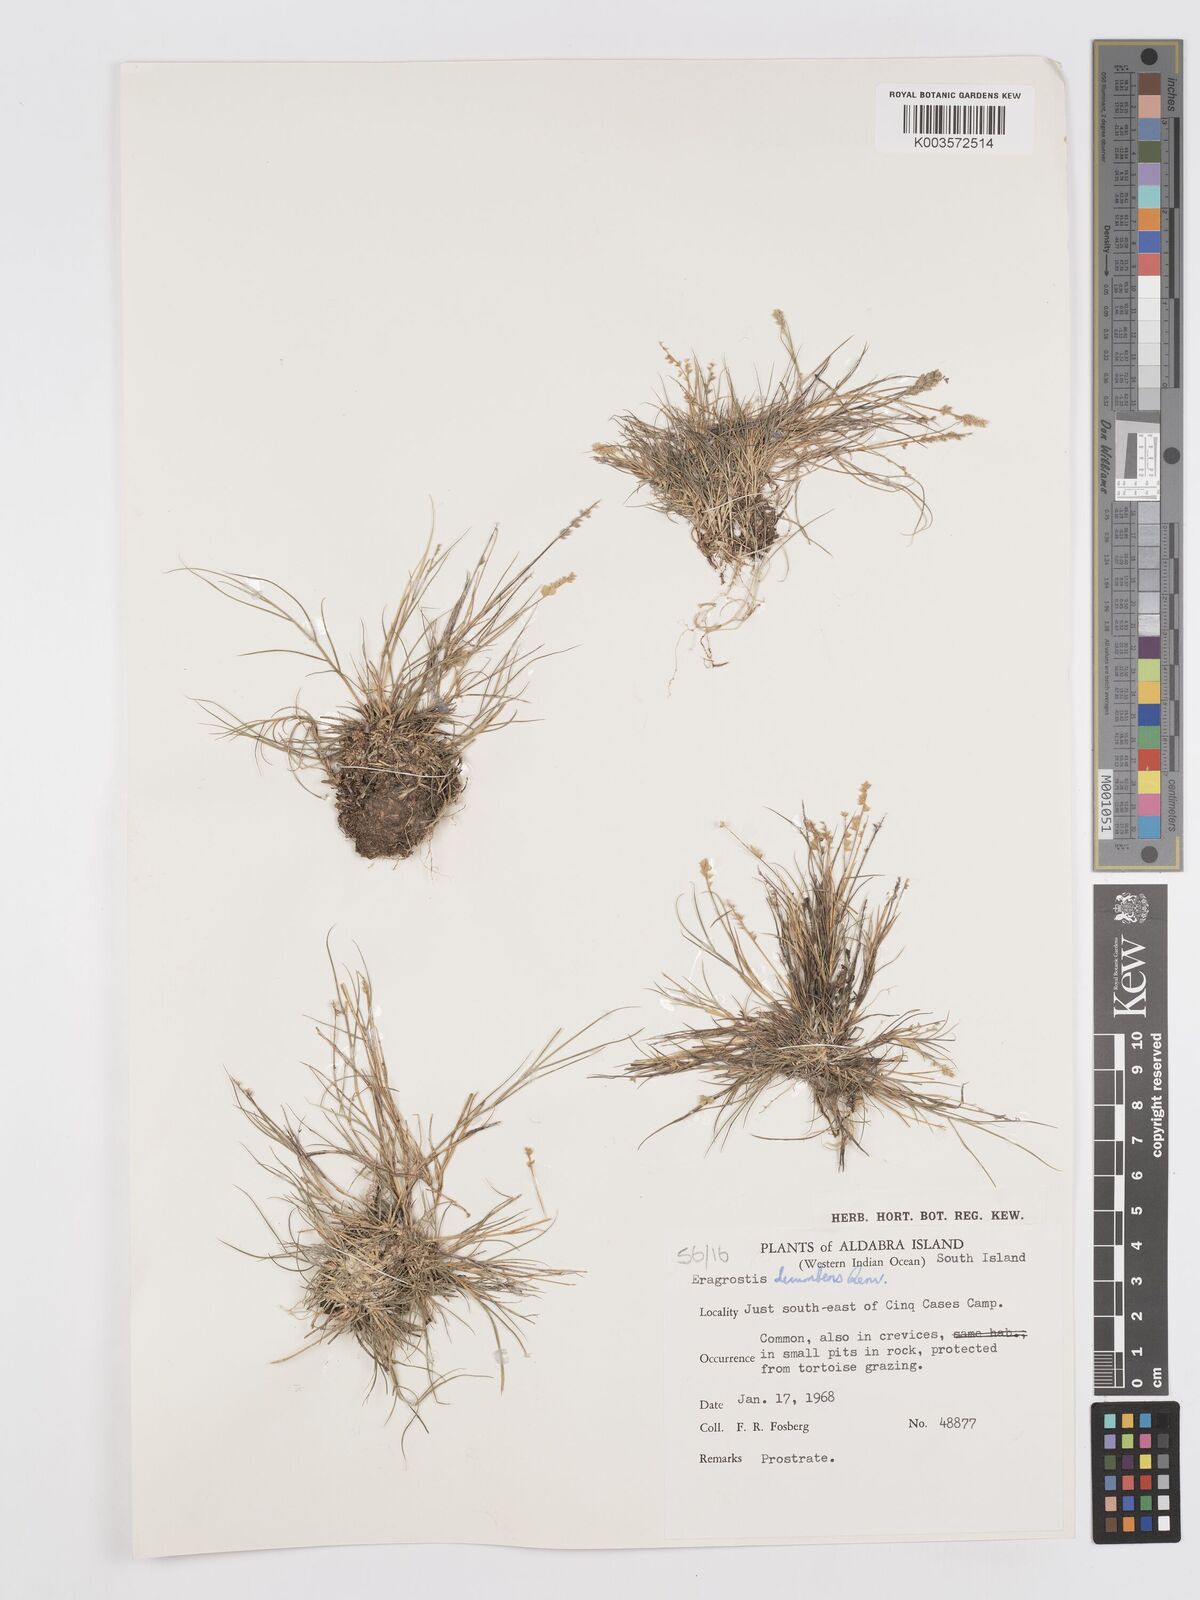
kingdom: Plantae
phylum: Tracheophyta
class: Liliopsida
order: Poales
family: Poaceae
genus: Eragrostis
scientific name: Eragrostis decumbens
